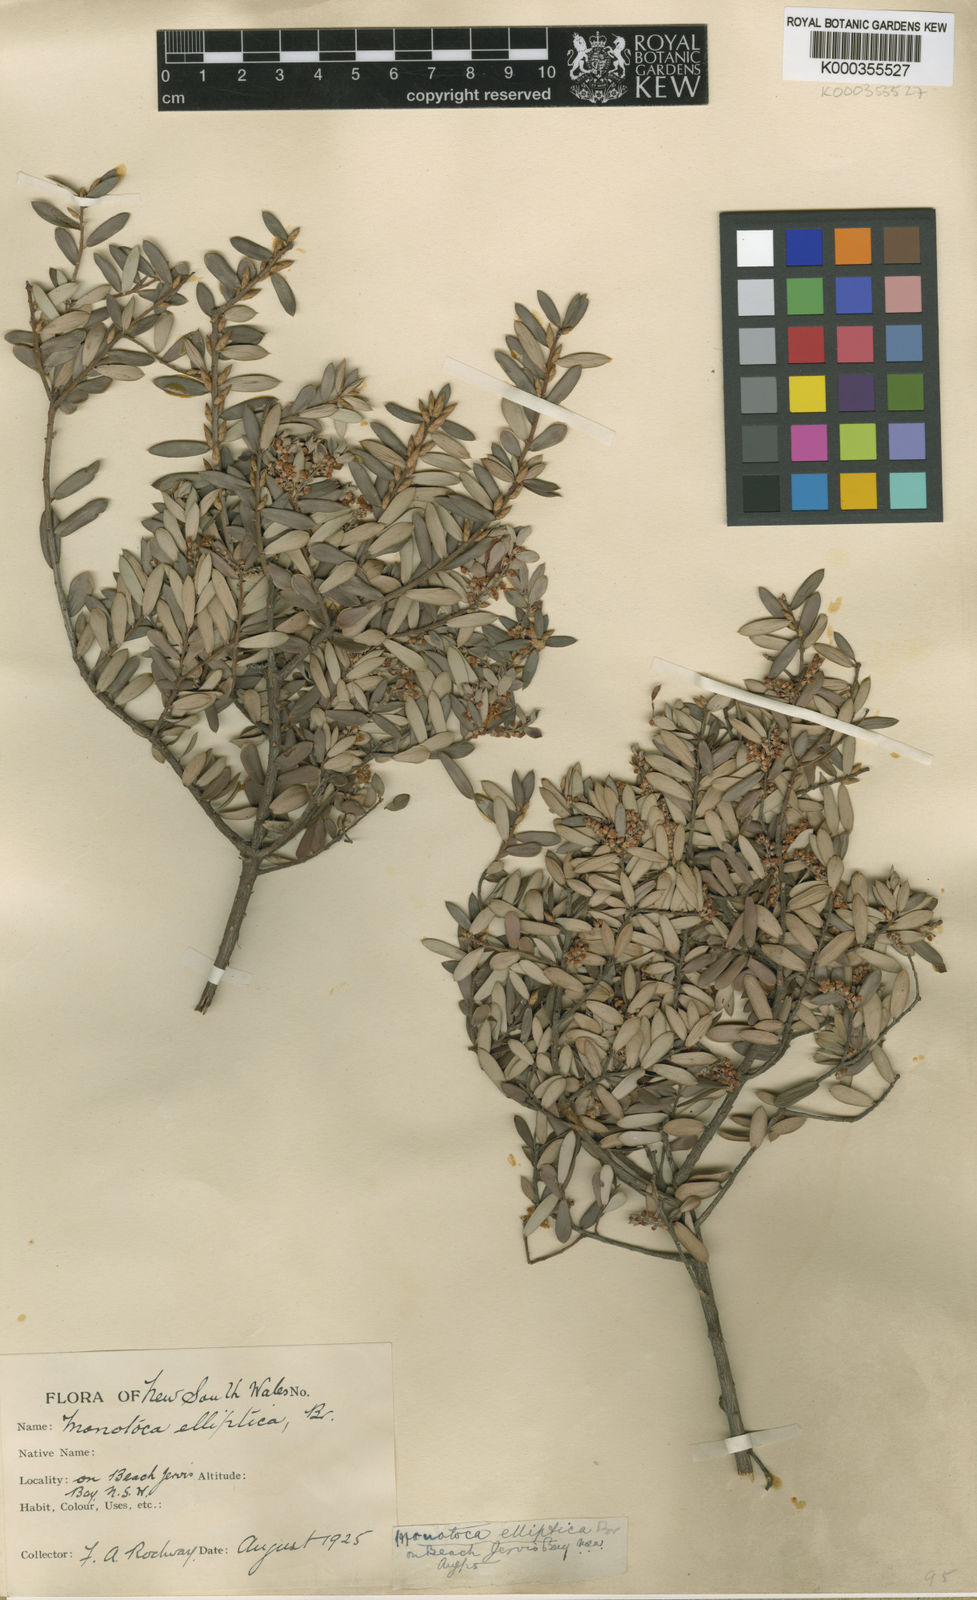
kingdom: Plantae
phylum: Tracheophyta
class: Magnoliopsida
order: Ericales
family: Ericaceae
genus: Monotoca
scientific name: Monotoca elliptica
